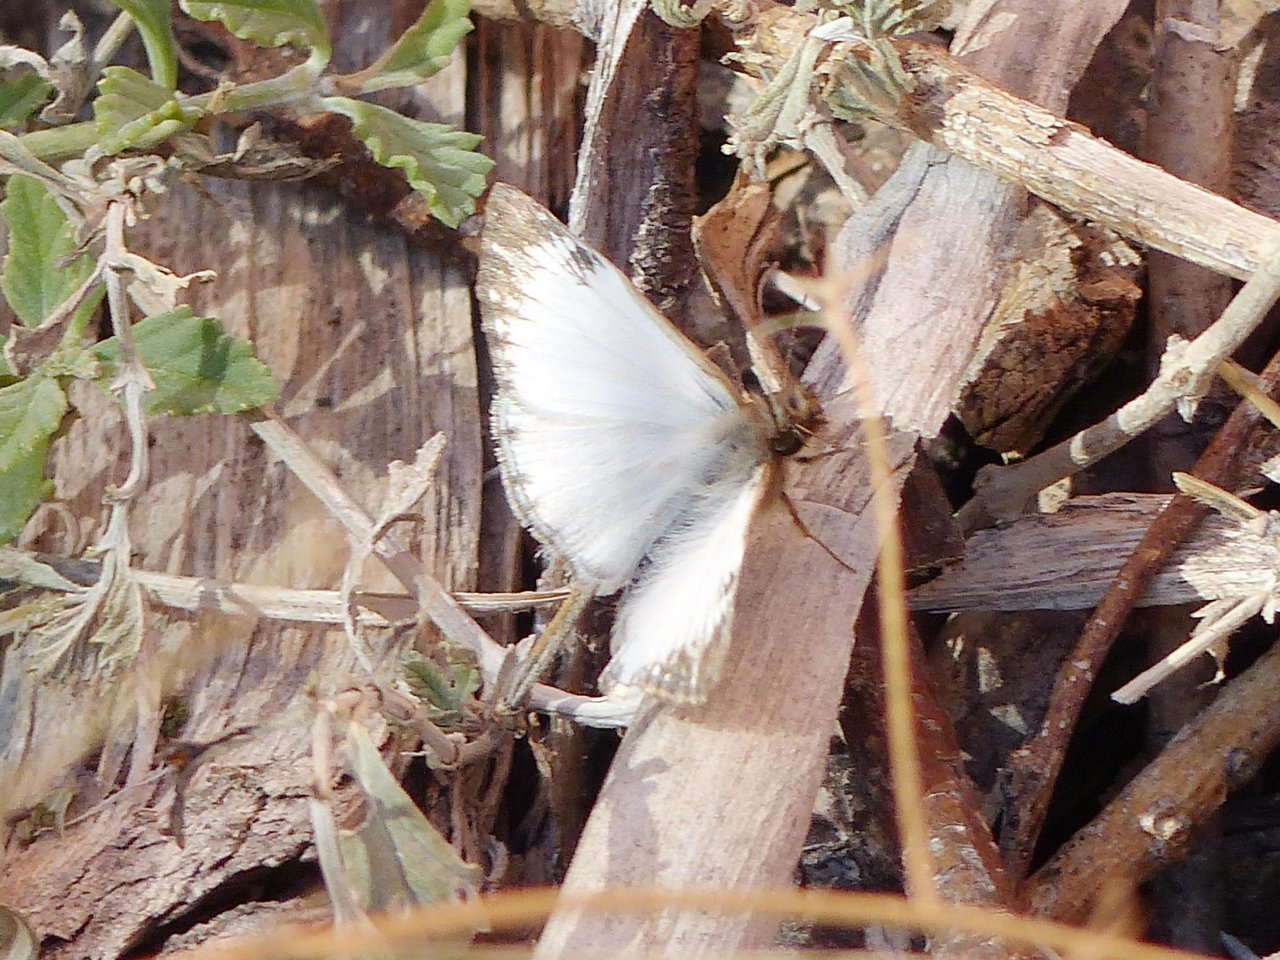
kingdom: Animalia
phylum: Arthropoda
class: Insecta
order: Lepidoptera
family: Hesperiidae
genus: Heliopetes
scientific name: Heliopetes macaira
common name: Turk's-cap White-Skipper
